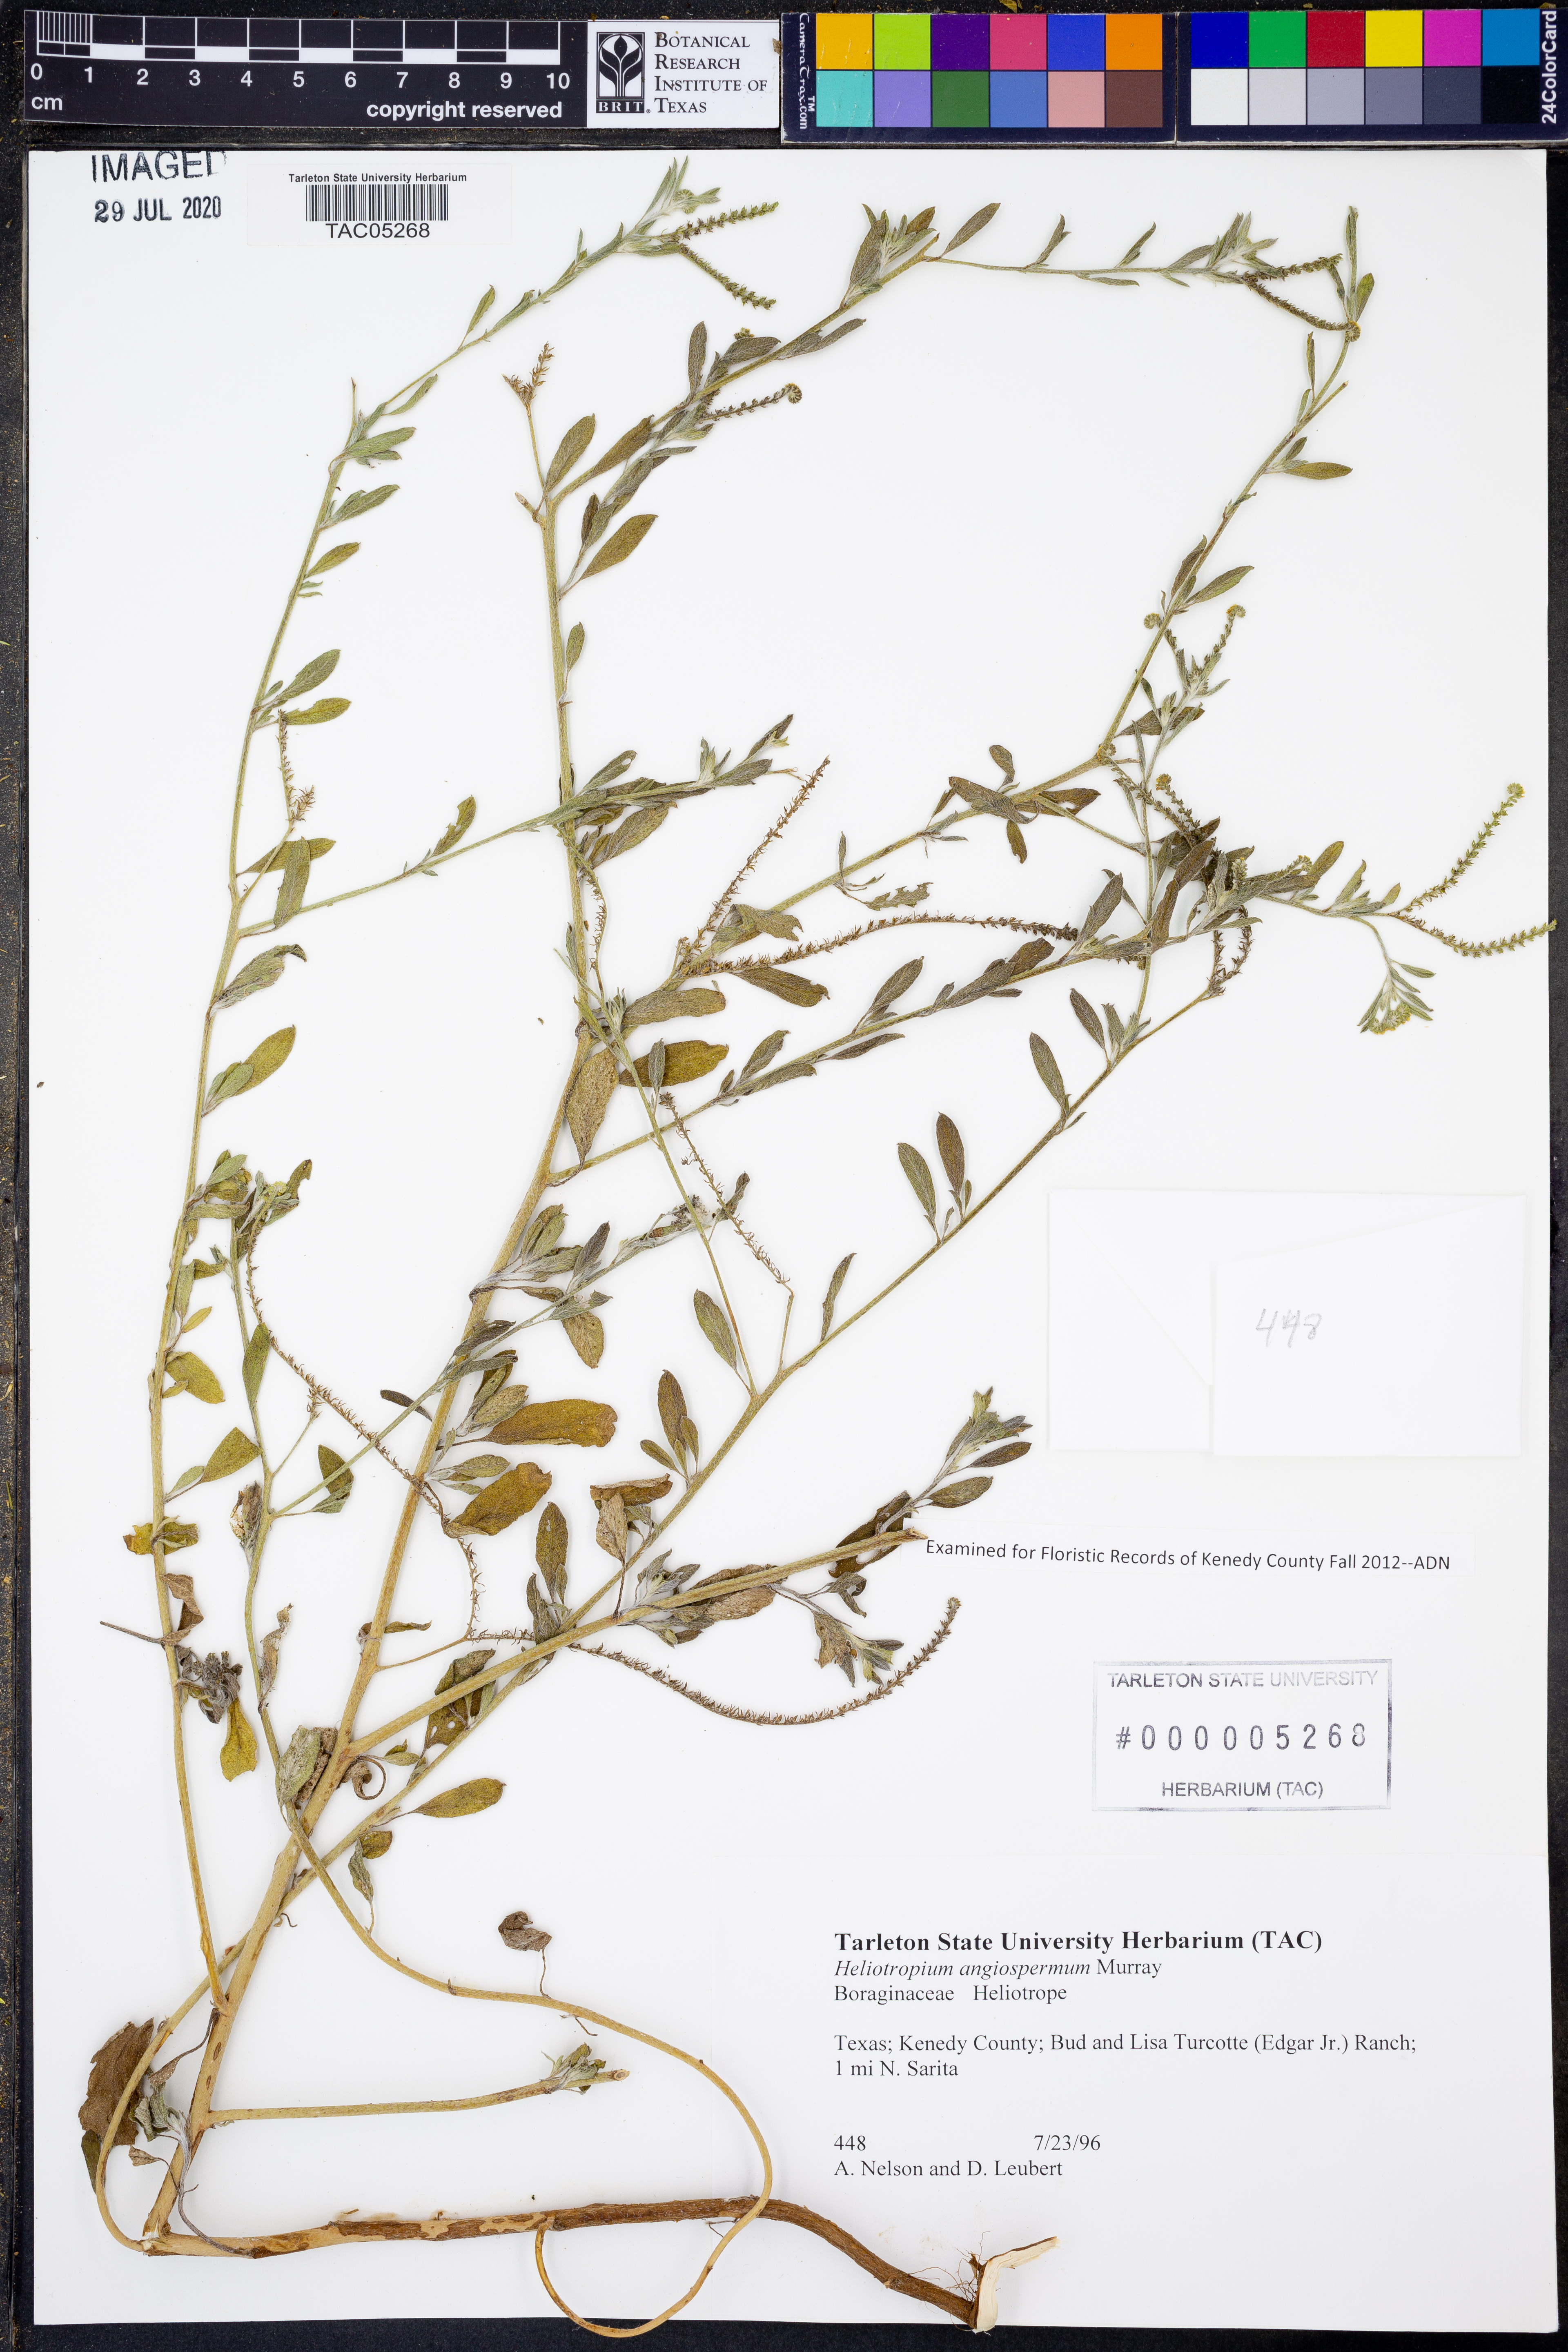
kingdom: Plantae
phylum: Tracheophyta
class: Magnoliopsida
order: Boraginales
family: Heliotropiaceae
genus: Heliotropium
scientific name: Heliotropium angiospermum
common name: Eye bright
